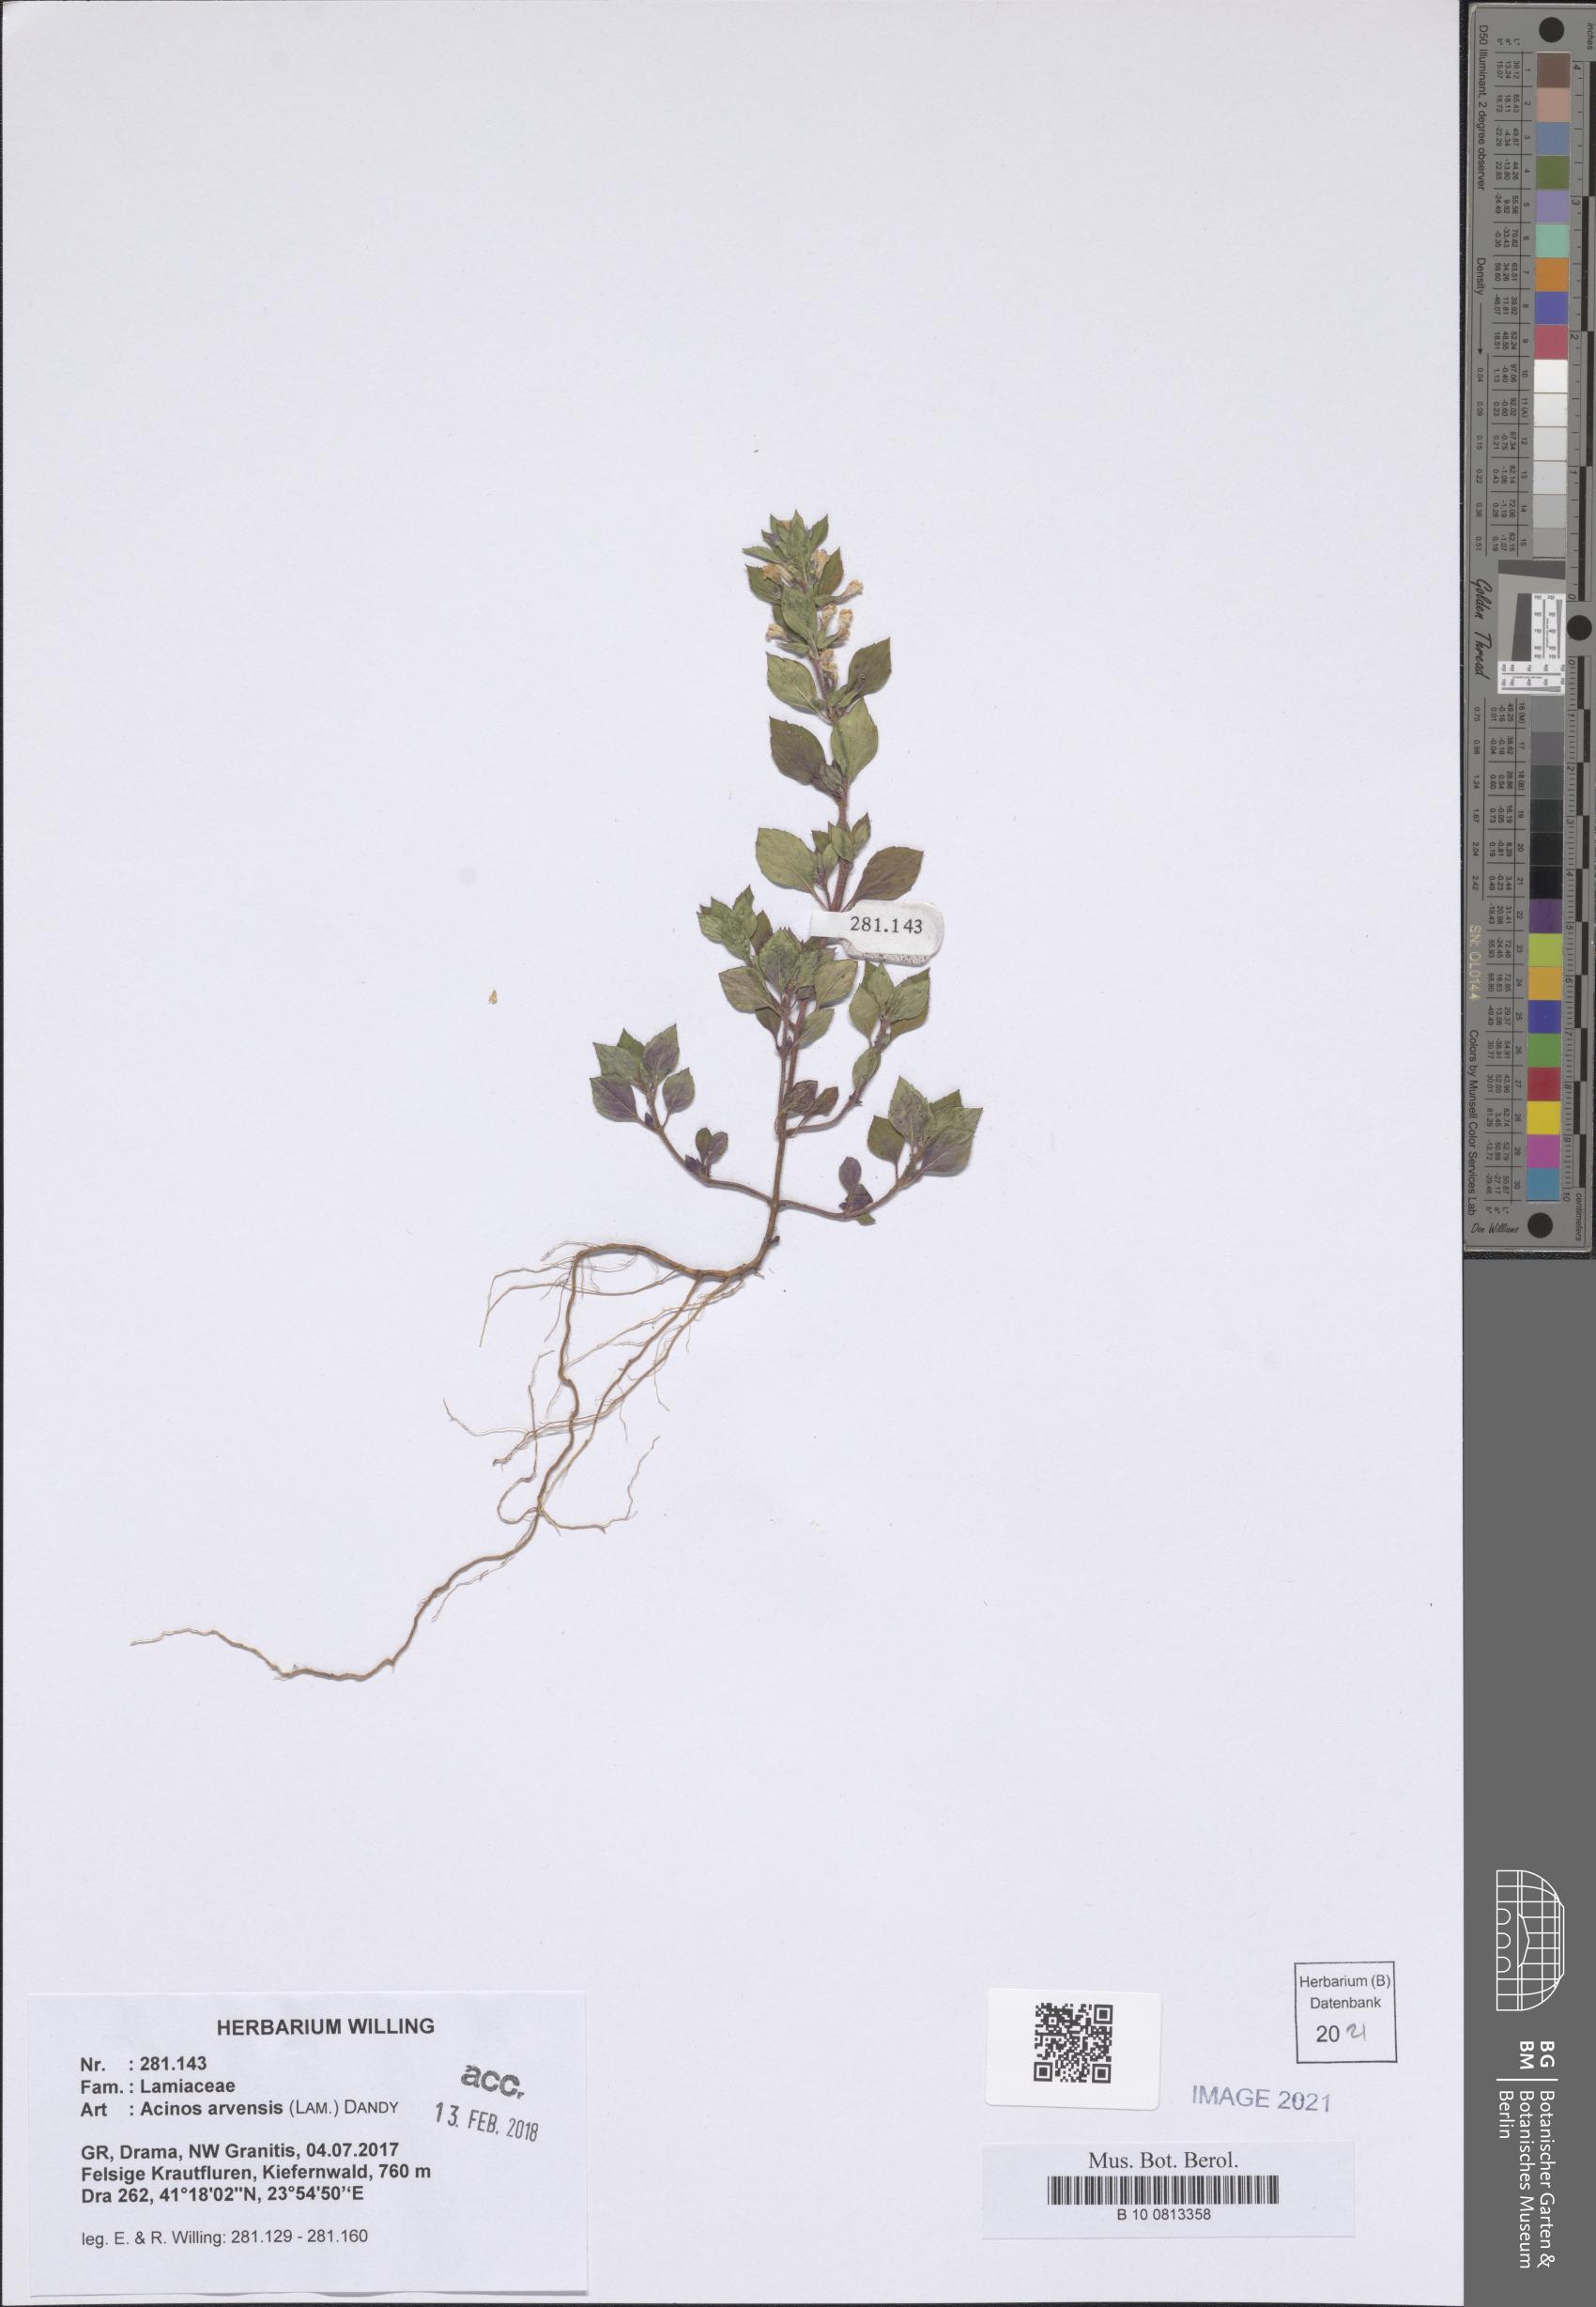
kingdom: Plantae
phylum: Tracheophyta
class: Magnoliopsida
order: Lamiales
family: Lamiaceae
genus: Clinopodium
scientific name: Clinopodium acinos
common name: Basil thyme
